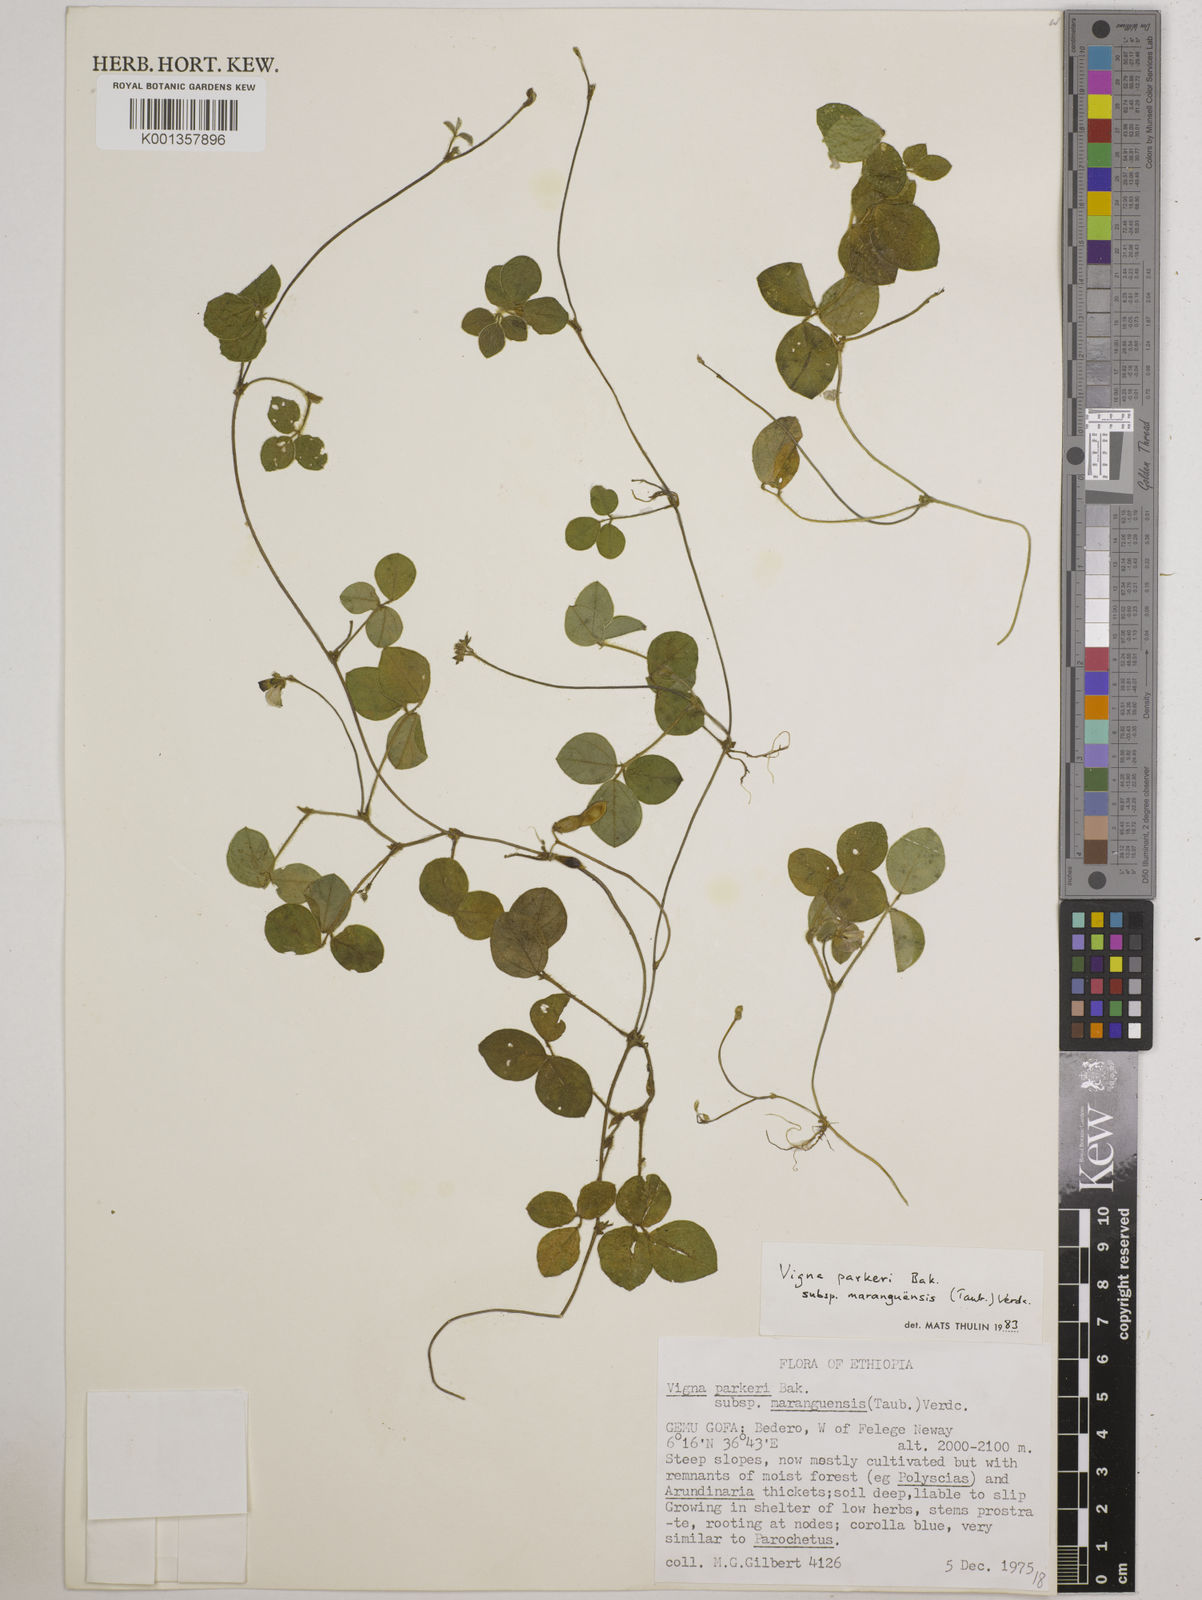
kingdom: Plantae
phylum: Tracheophyta
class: Magnoliopsida
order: Fabales
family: Fabaceae
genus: Vigna
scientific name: Vigna
